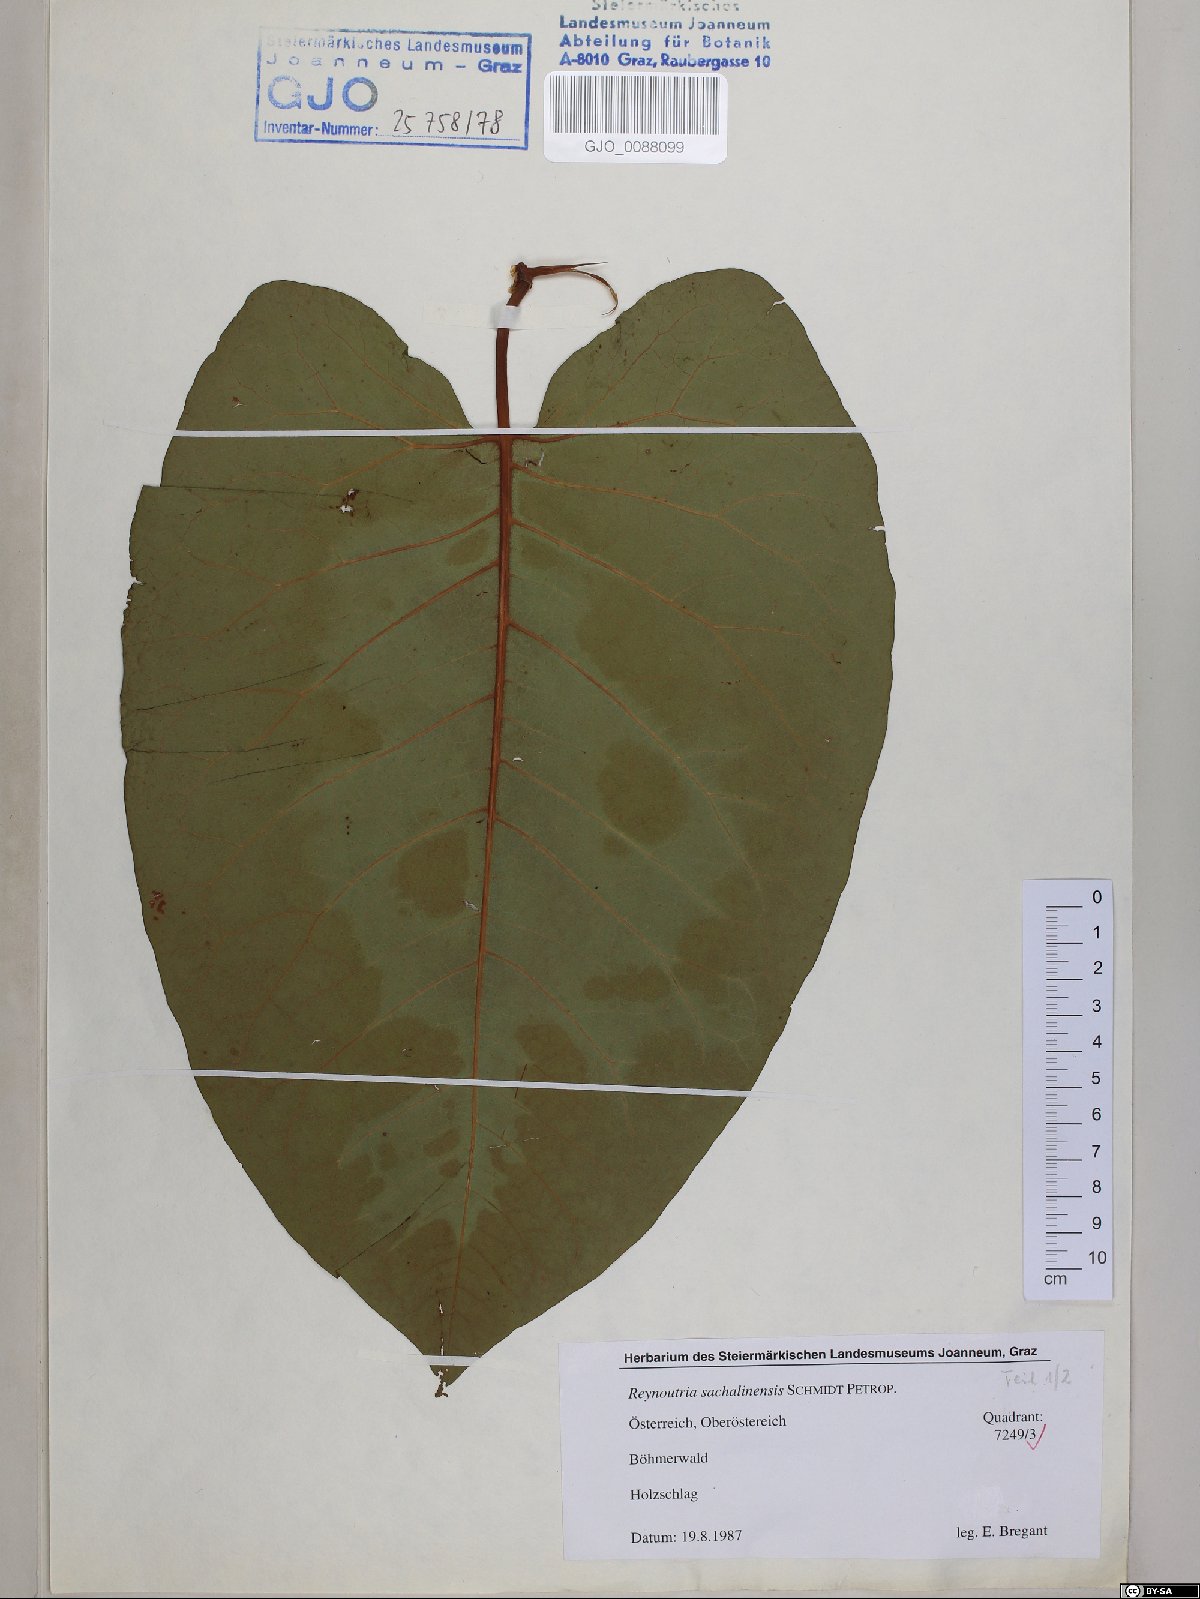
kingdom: Plantae
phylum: Tracheophyta
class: Magnoliopsida
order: Caryophyllales
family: Polygonaceae
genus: Reynoutria
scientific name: Reynoutria sachalinensis
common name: Giant knotweed
